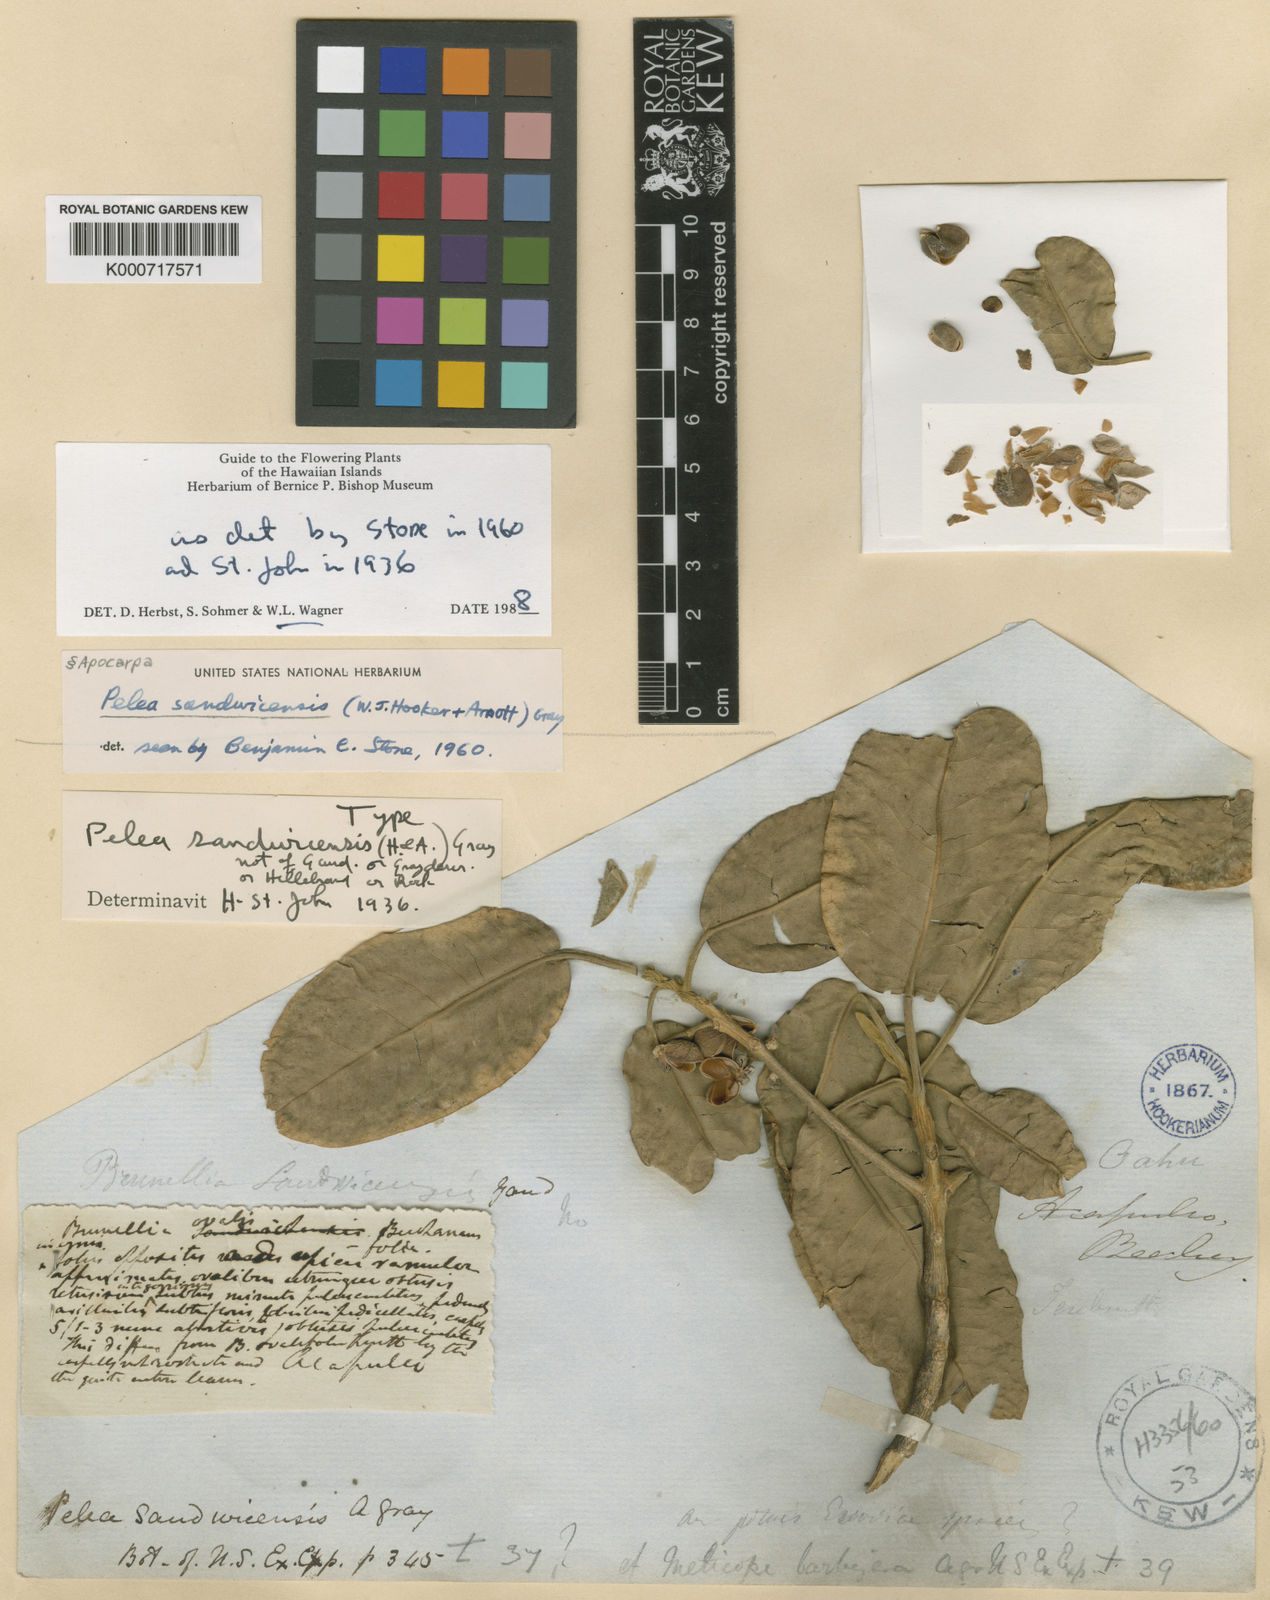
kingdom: Plantae
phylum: Tracheophyta
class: Magnoliopsida
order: Sapindales
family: Rutaceae
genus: Melicope
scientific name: Melicope sandwicensis
